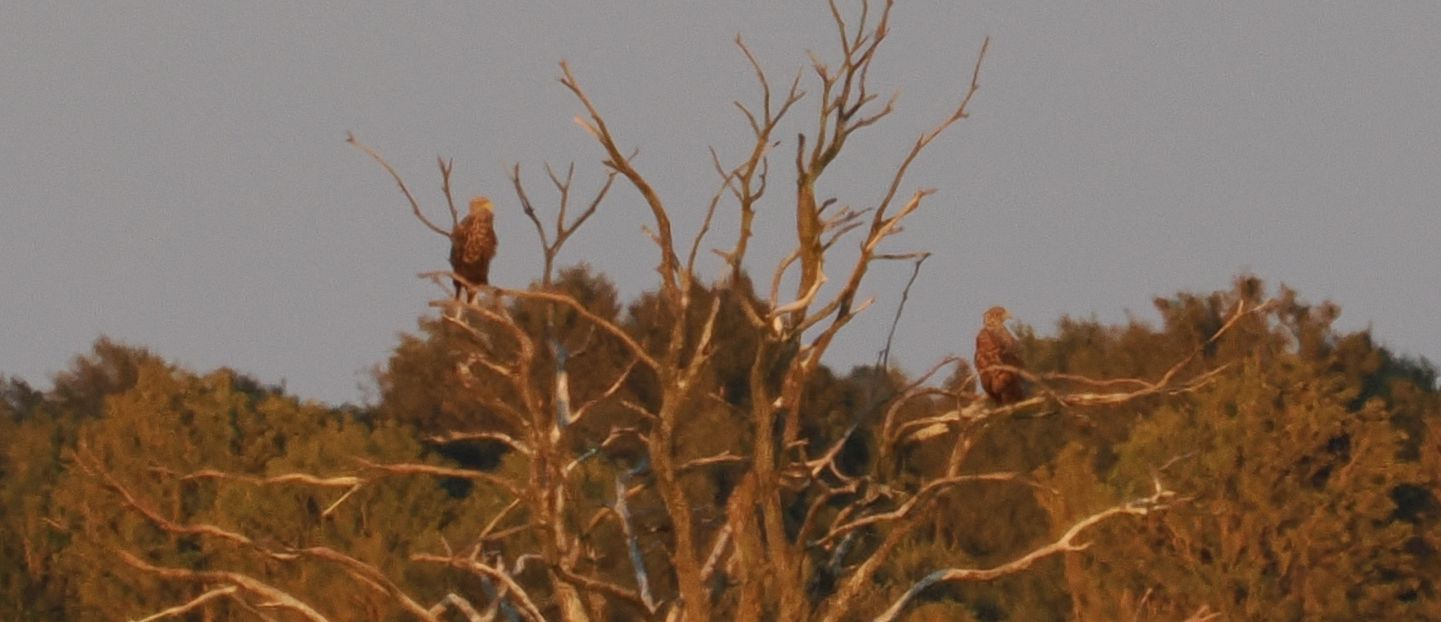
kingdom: Animalia
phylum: Chordata
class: Aves
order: Accipitriformes
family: Accipitridae
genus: Haliaeetus
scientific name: Haliaeetus albicilla
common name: Havørn
